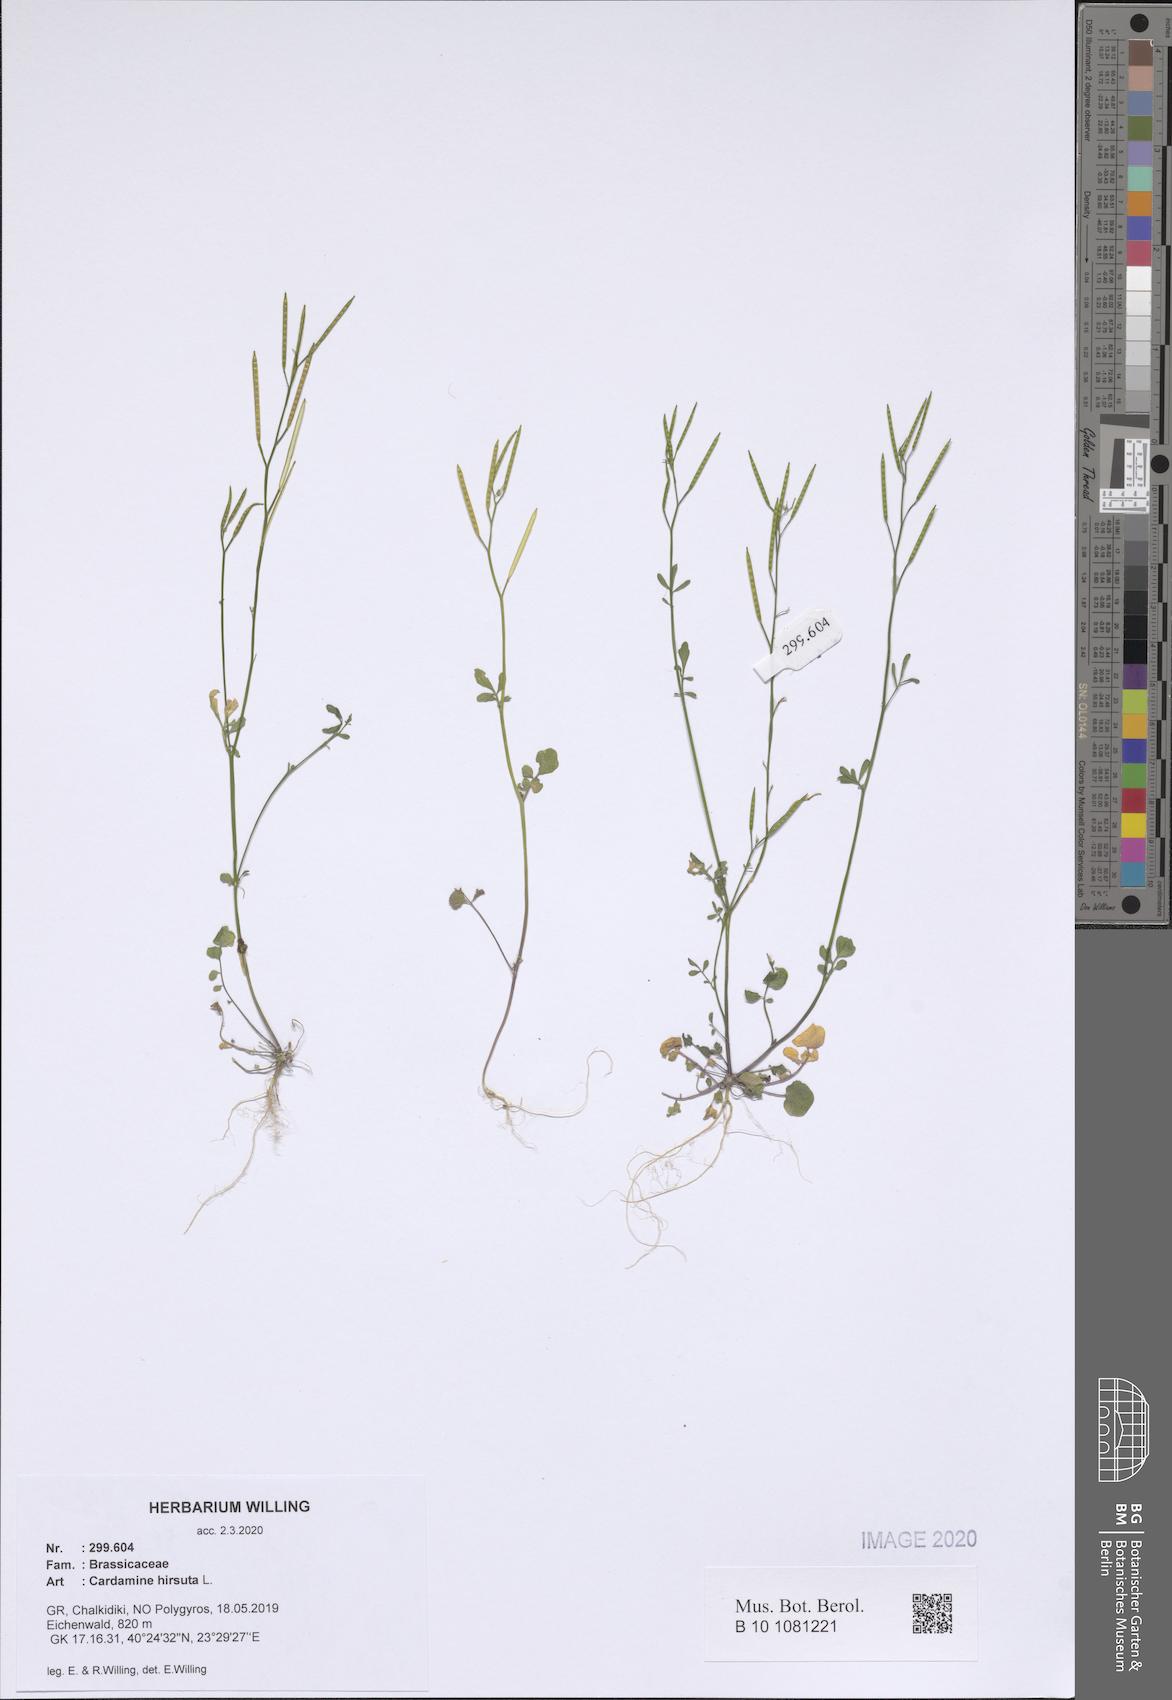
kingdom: Plantae
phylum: Tracheophyta
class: Magnoliopsida
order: Brassicales
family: Brassicaceae
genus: Cardamine
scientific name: Cardamine hirsuta
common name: Hairy bittercress
